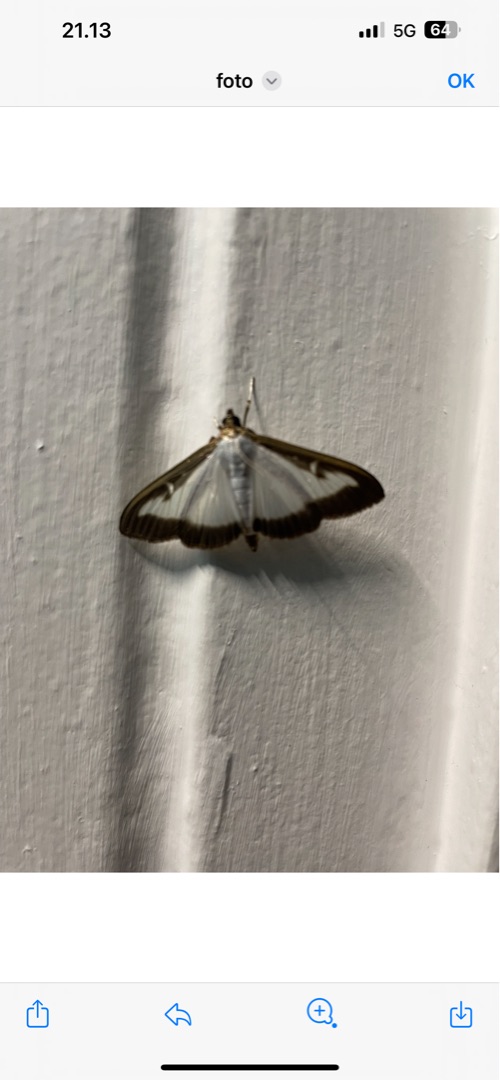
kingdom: Animalia
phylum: Arthropoda
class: Insecta
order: Lepidoptera
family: Crambidae
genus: Cydalima
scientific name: Cydalima perspectalis
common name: Buksbomhalvmøl
